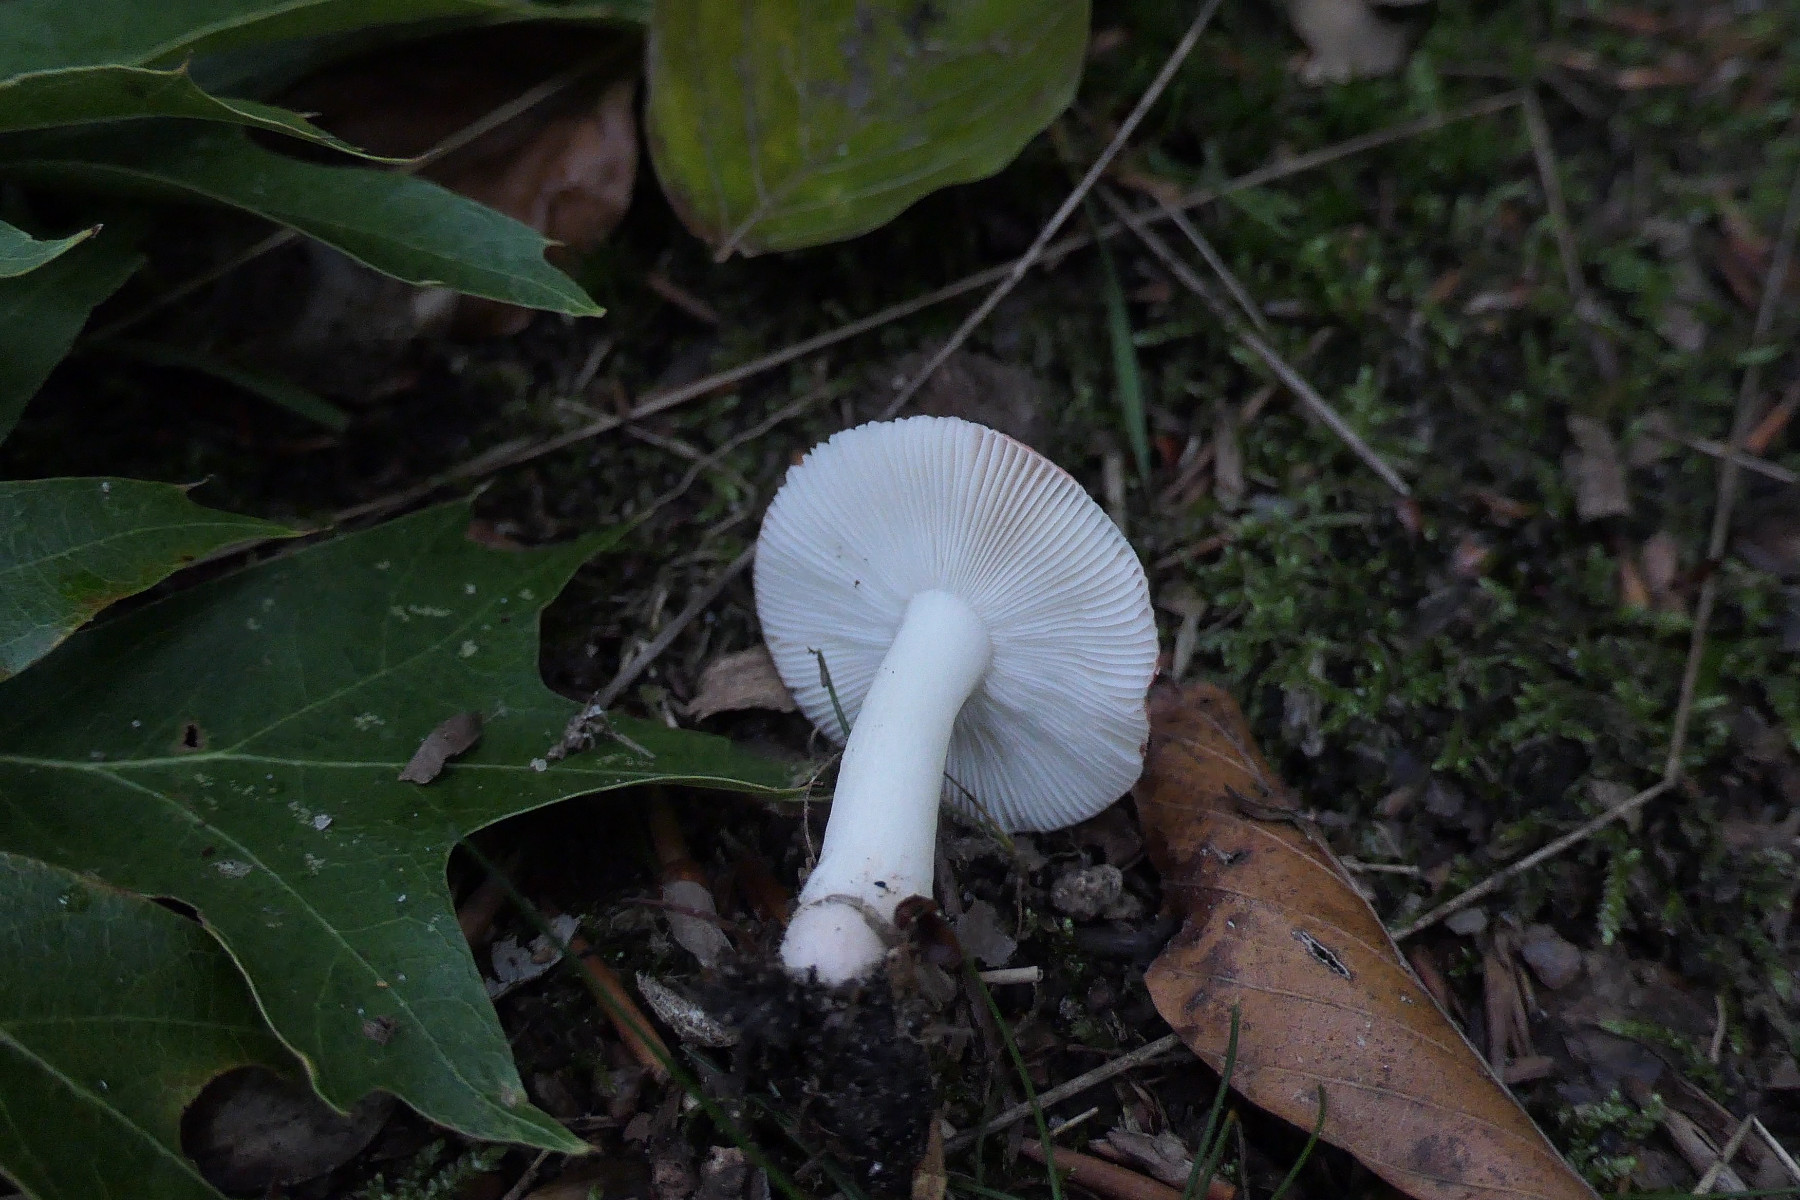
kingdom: Fungi
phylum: Basidiomycota
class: Agaricomycetes
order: Russulales
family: Russulaceae
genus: Russula
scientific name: Russula nobilis
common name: lille gift-skørhat
